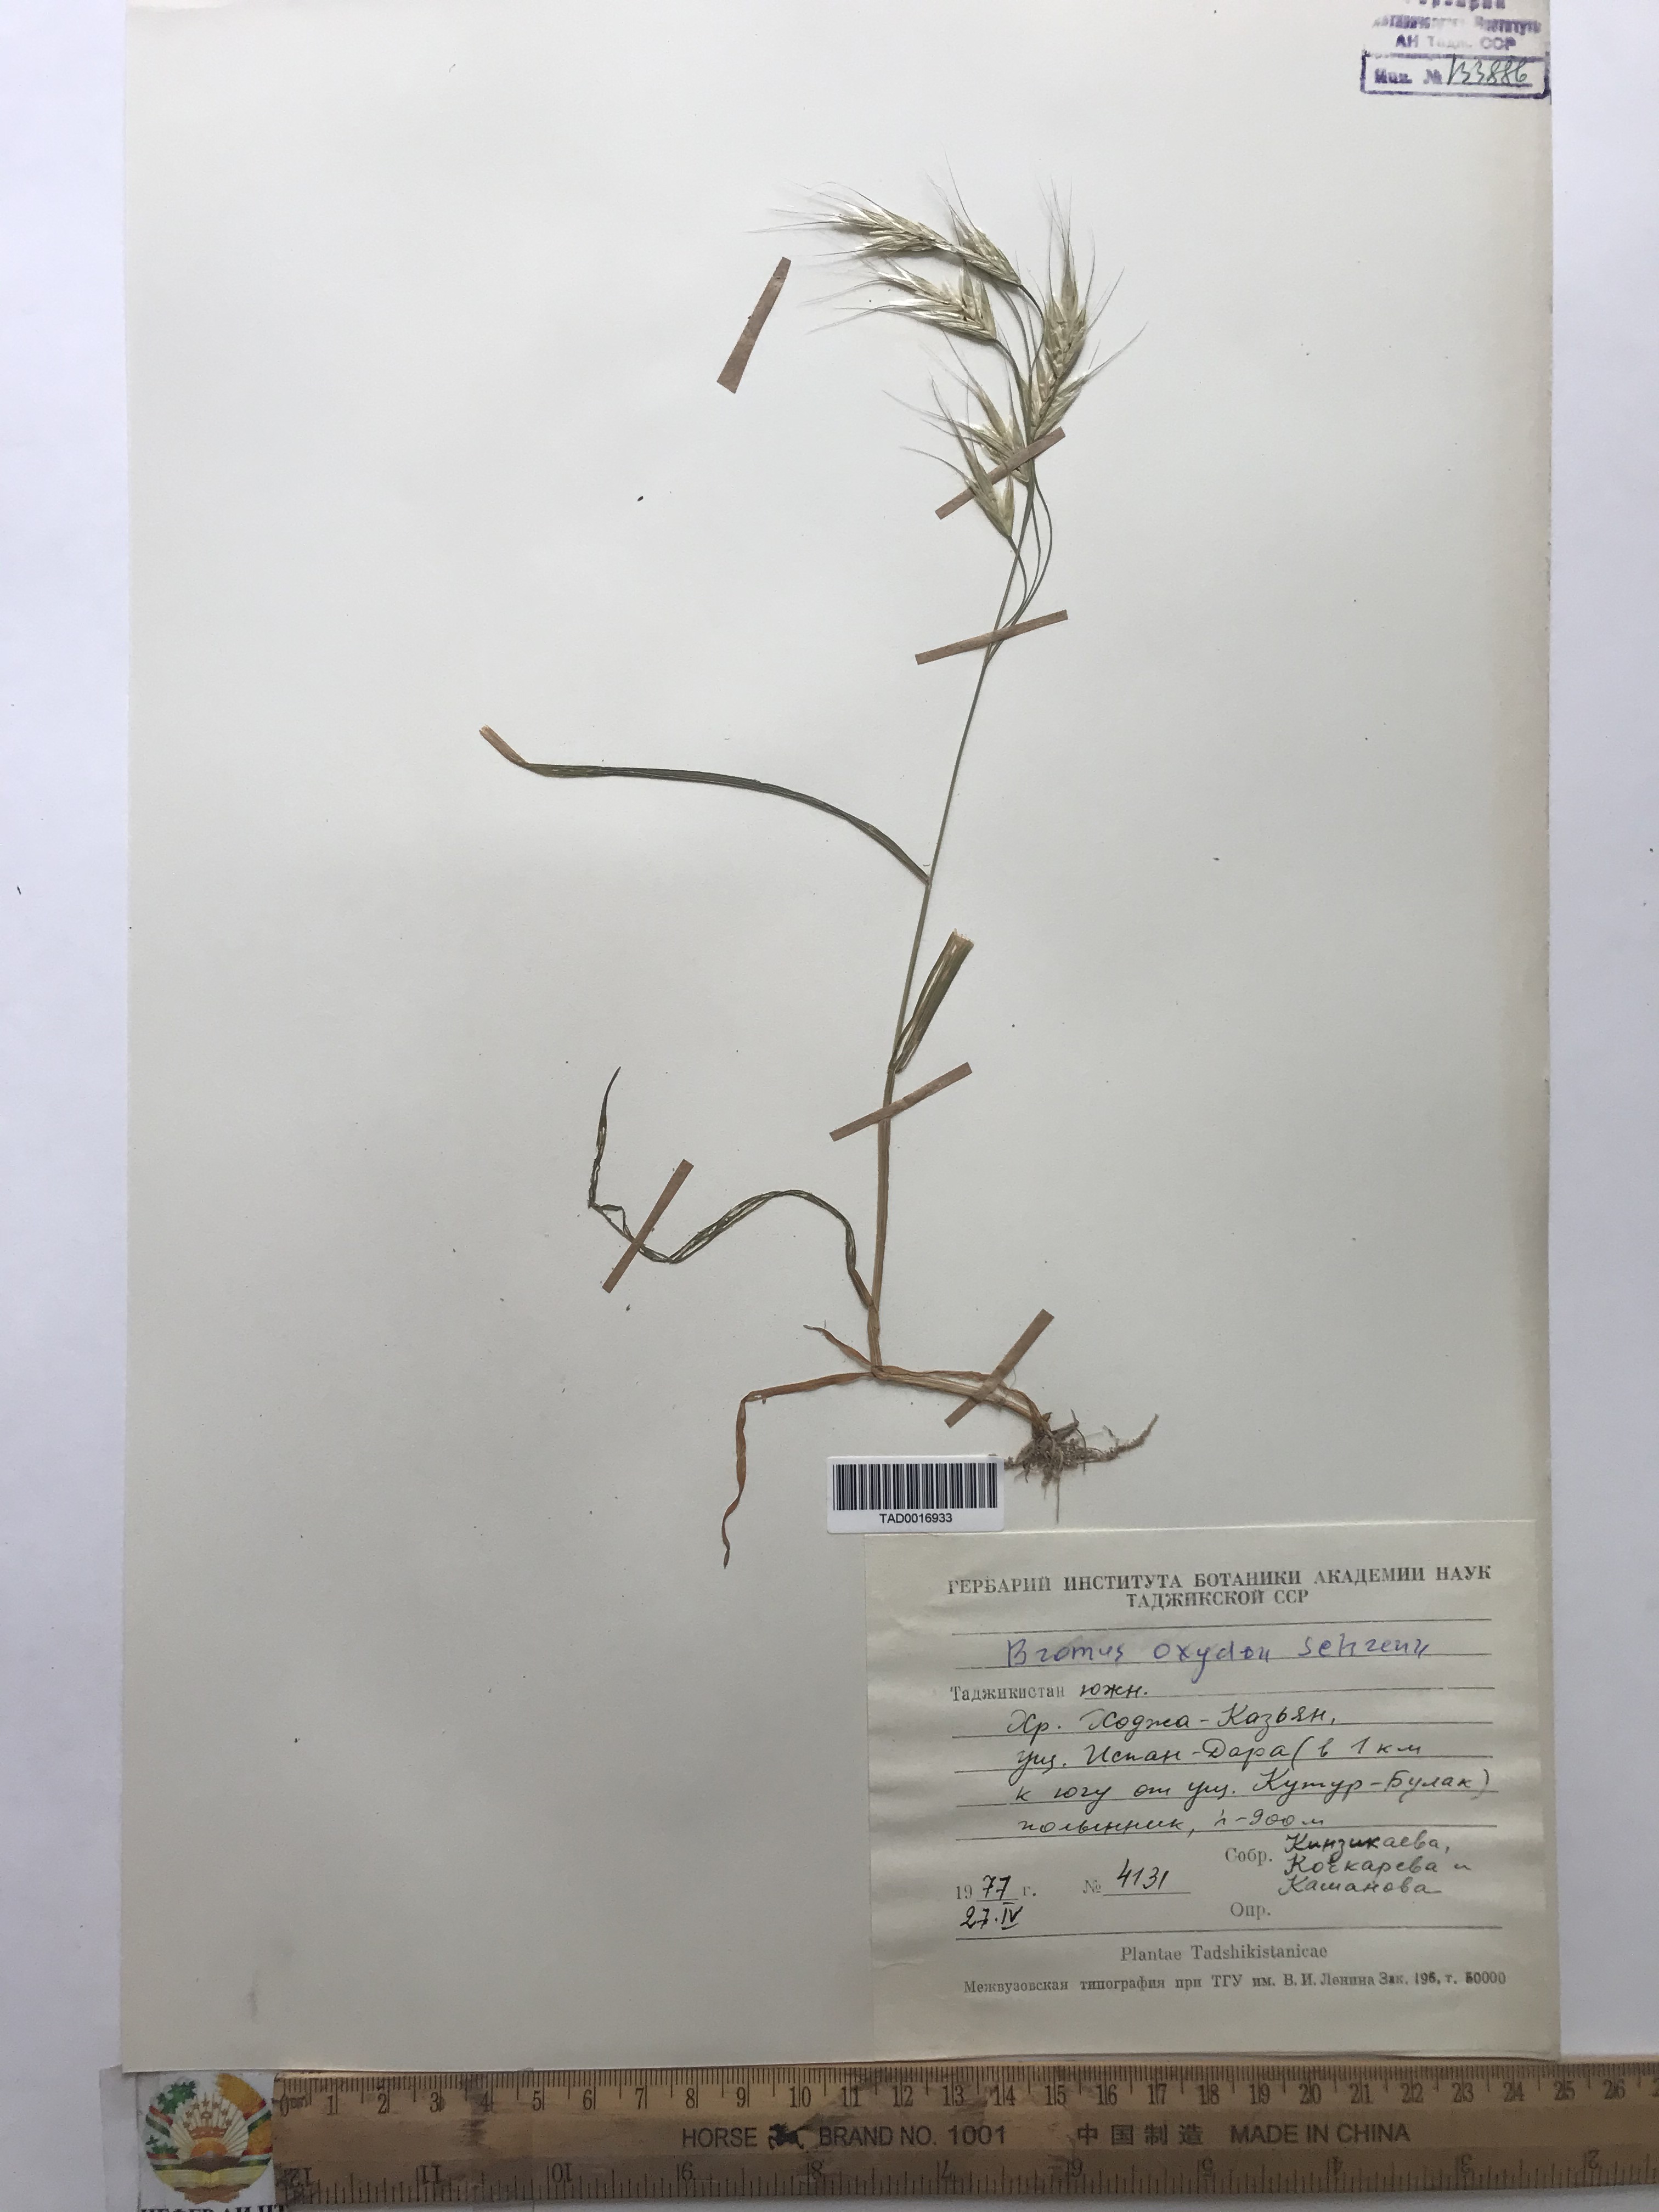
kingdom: Plantae
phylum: Tracheophyta
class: Liliopsida
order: Poales
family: Poaceae
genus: Bromus
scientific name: Bromus oxyodon
